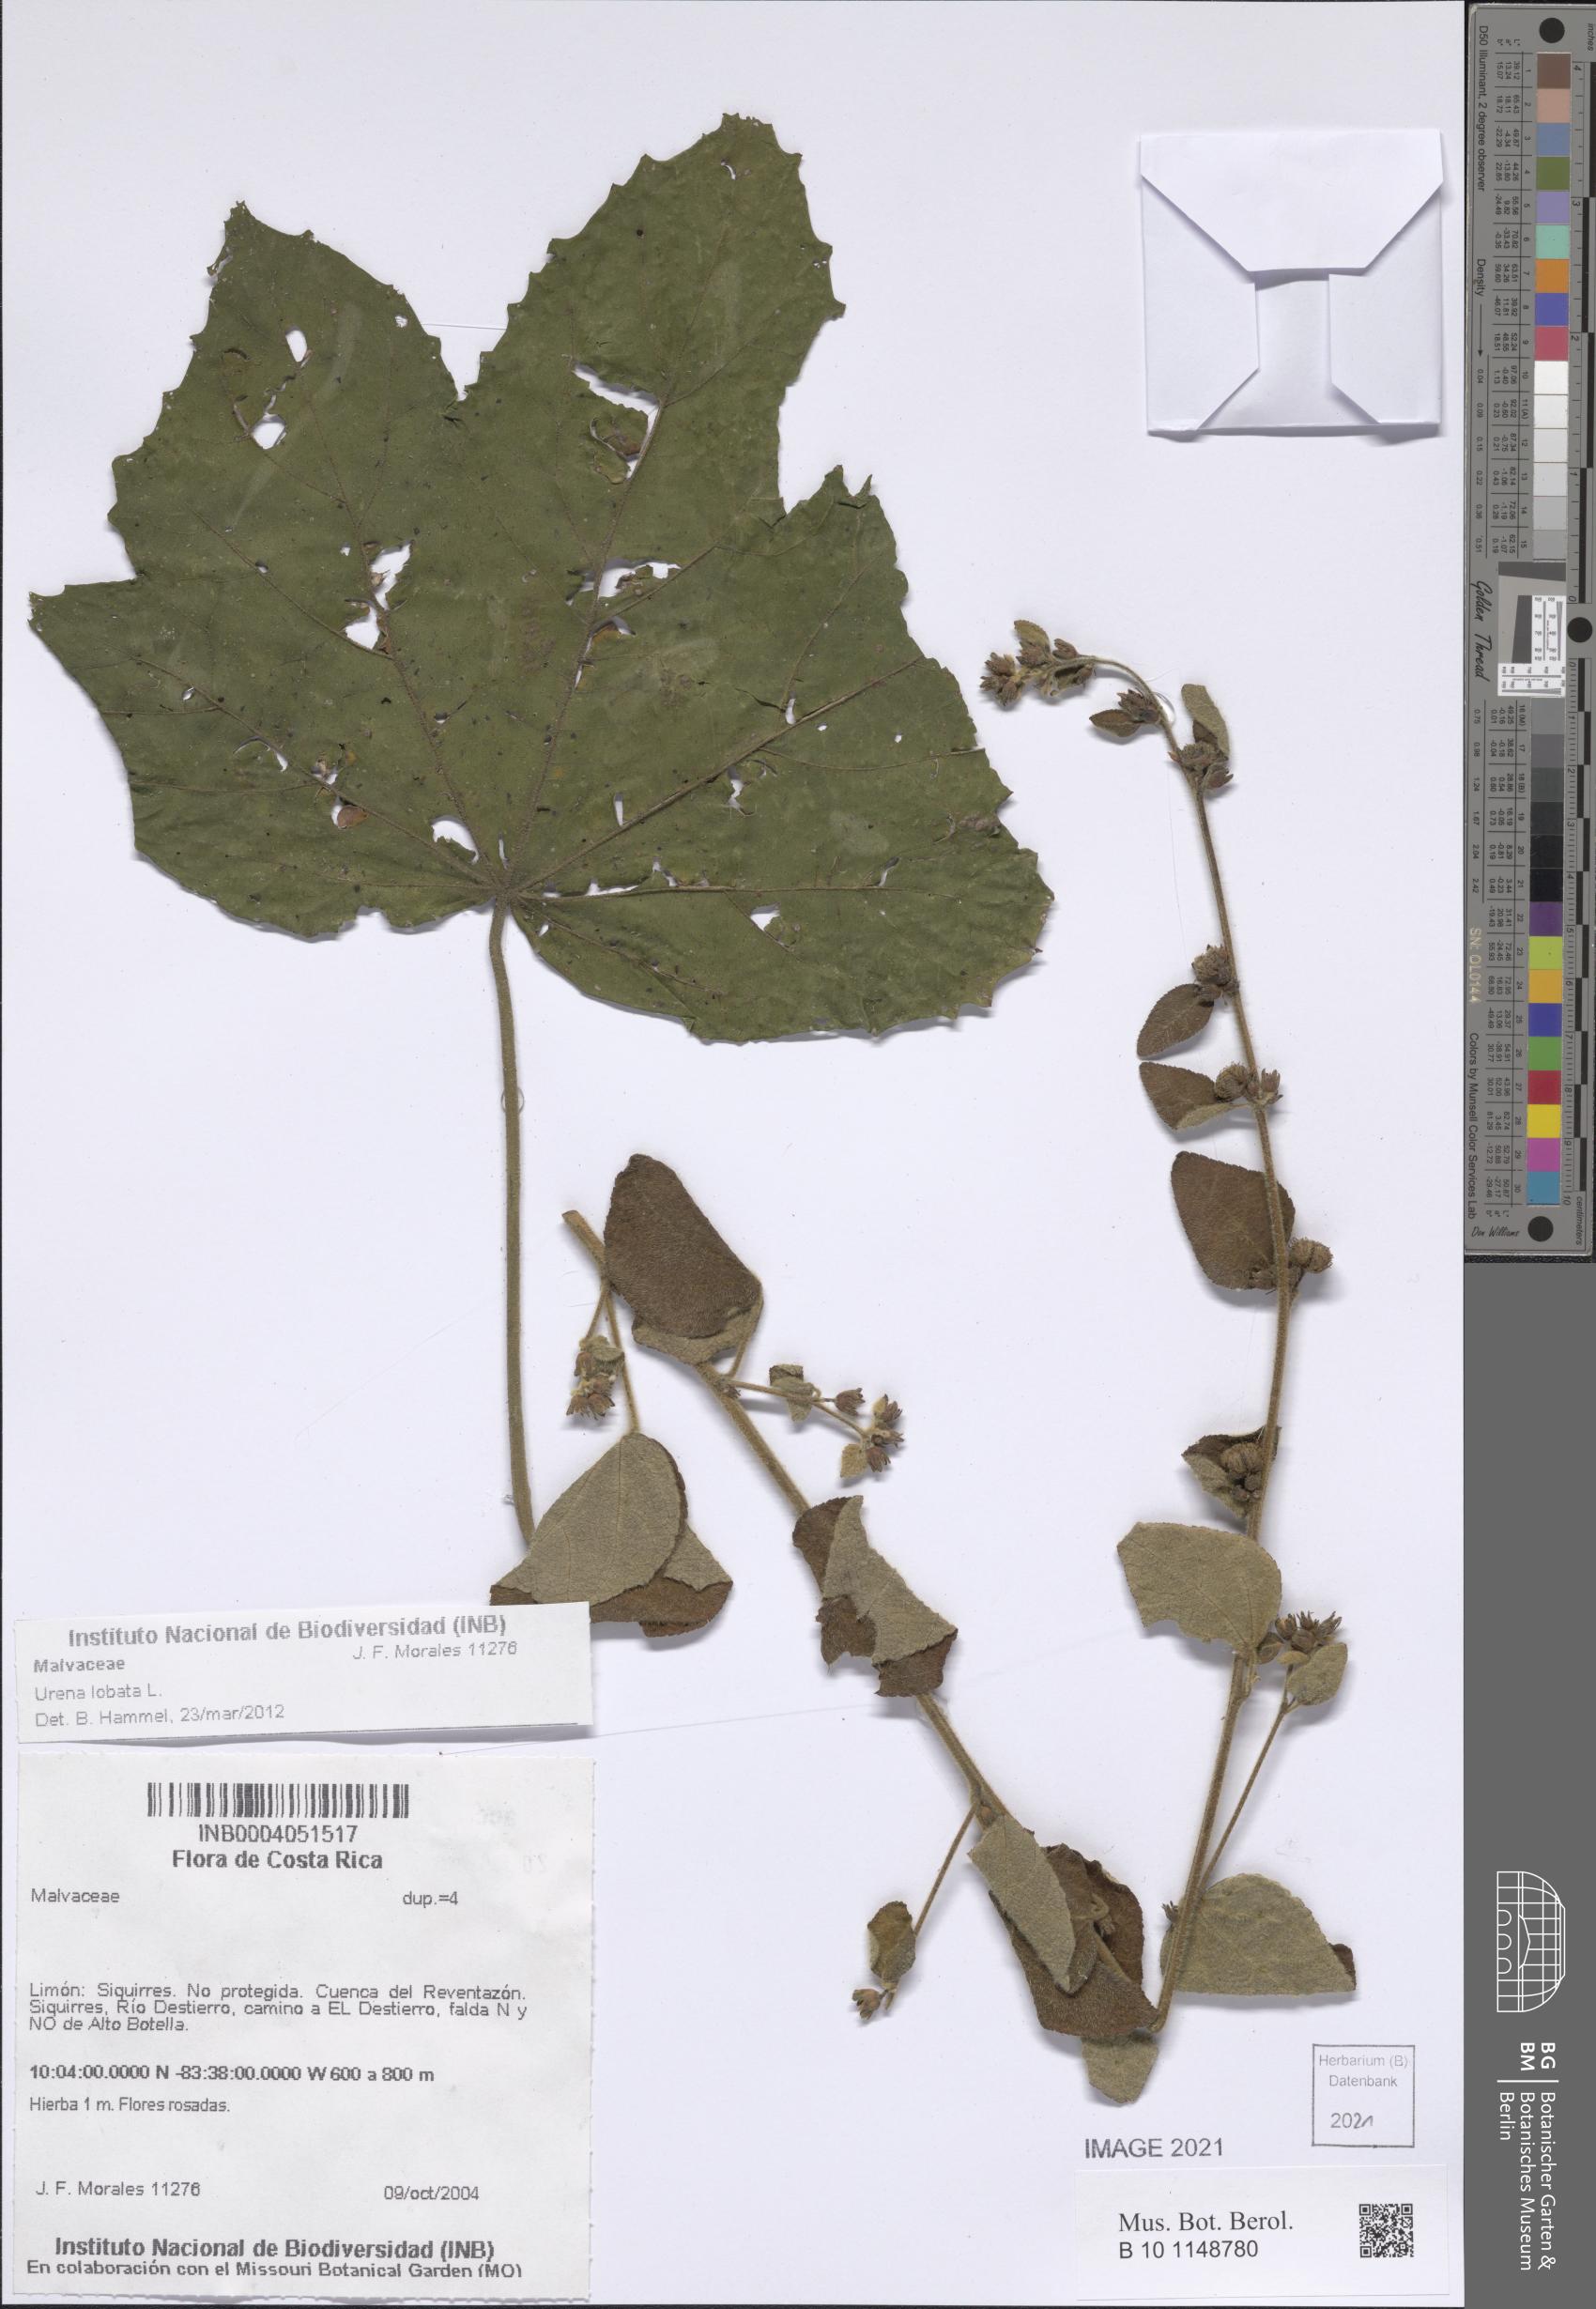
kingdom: Plantae
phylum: Tracheophyta
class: Magnoliopsida
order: Malvales
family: Malvaceae
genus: Urena
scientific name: Urena lobata
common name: Caesarweed
